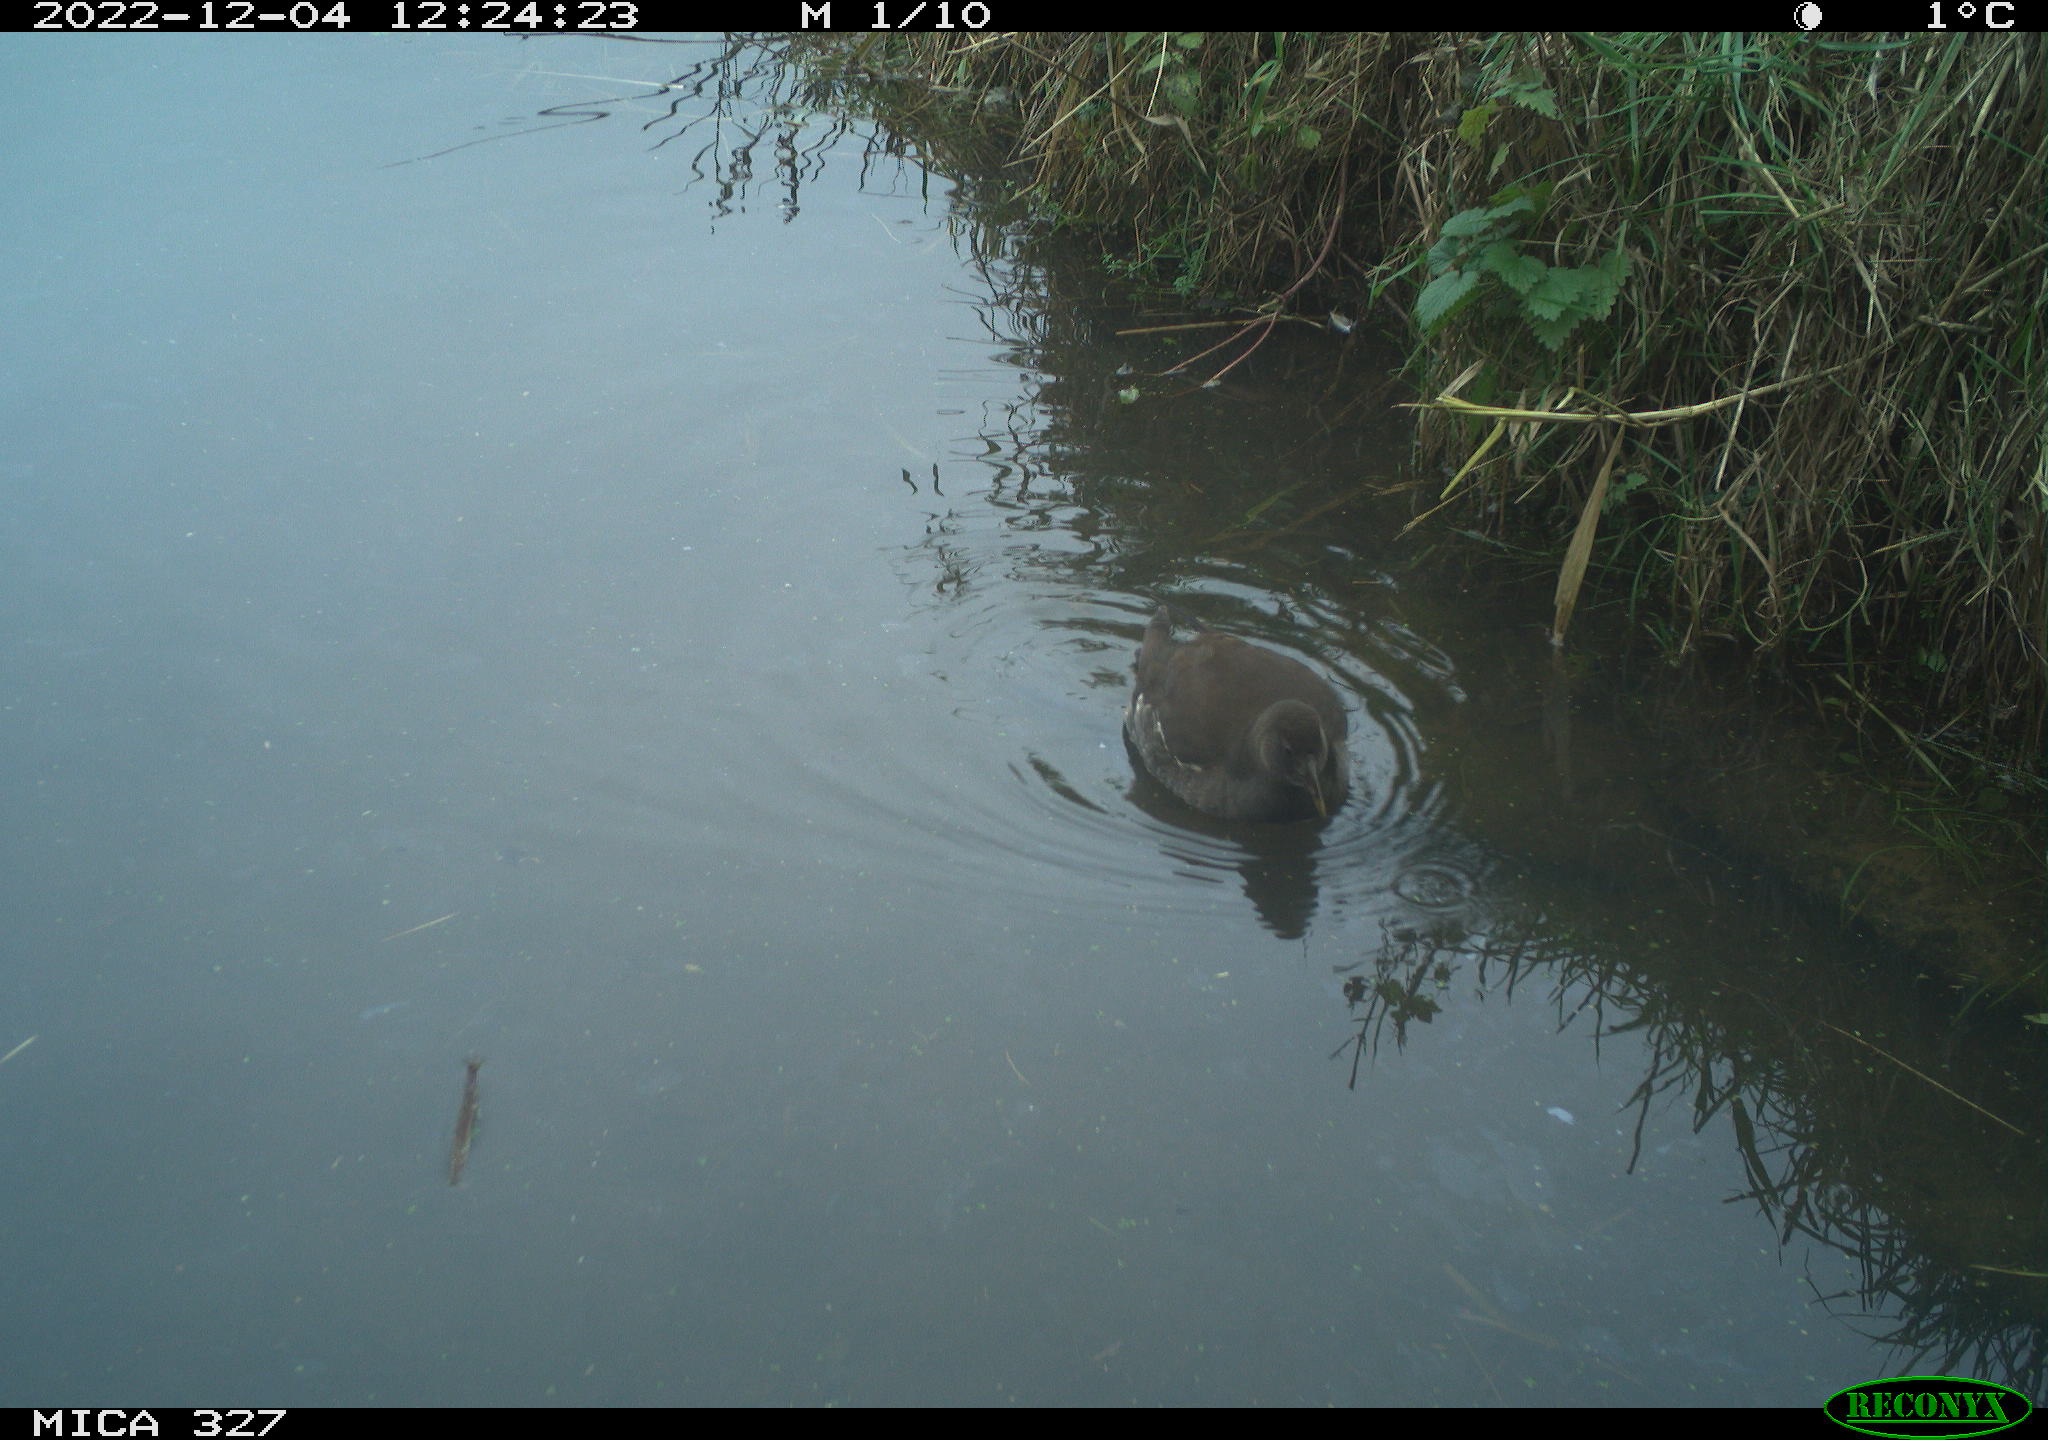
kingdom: Animalia
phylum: Chordata
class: Aves
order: Gruiformes
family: Rallidae
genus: Gallinula
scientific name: Gallinula chloropus
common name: Common moorhen
